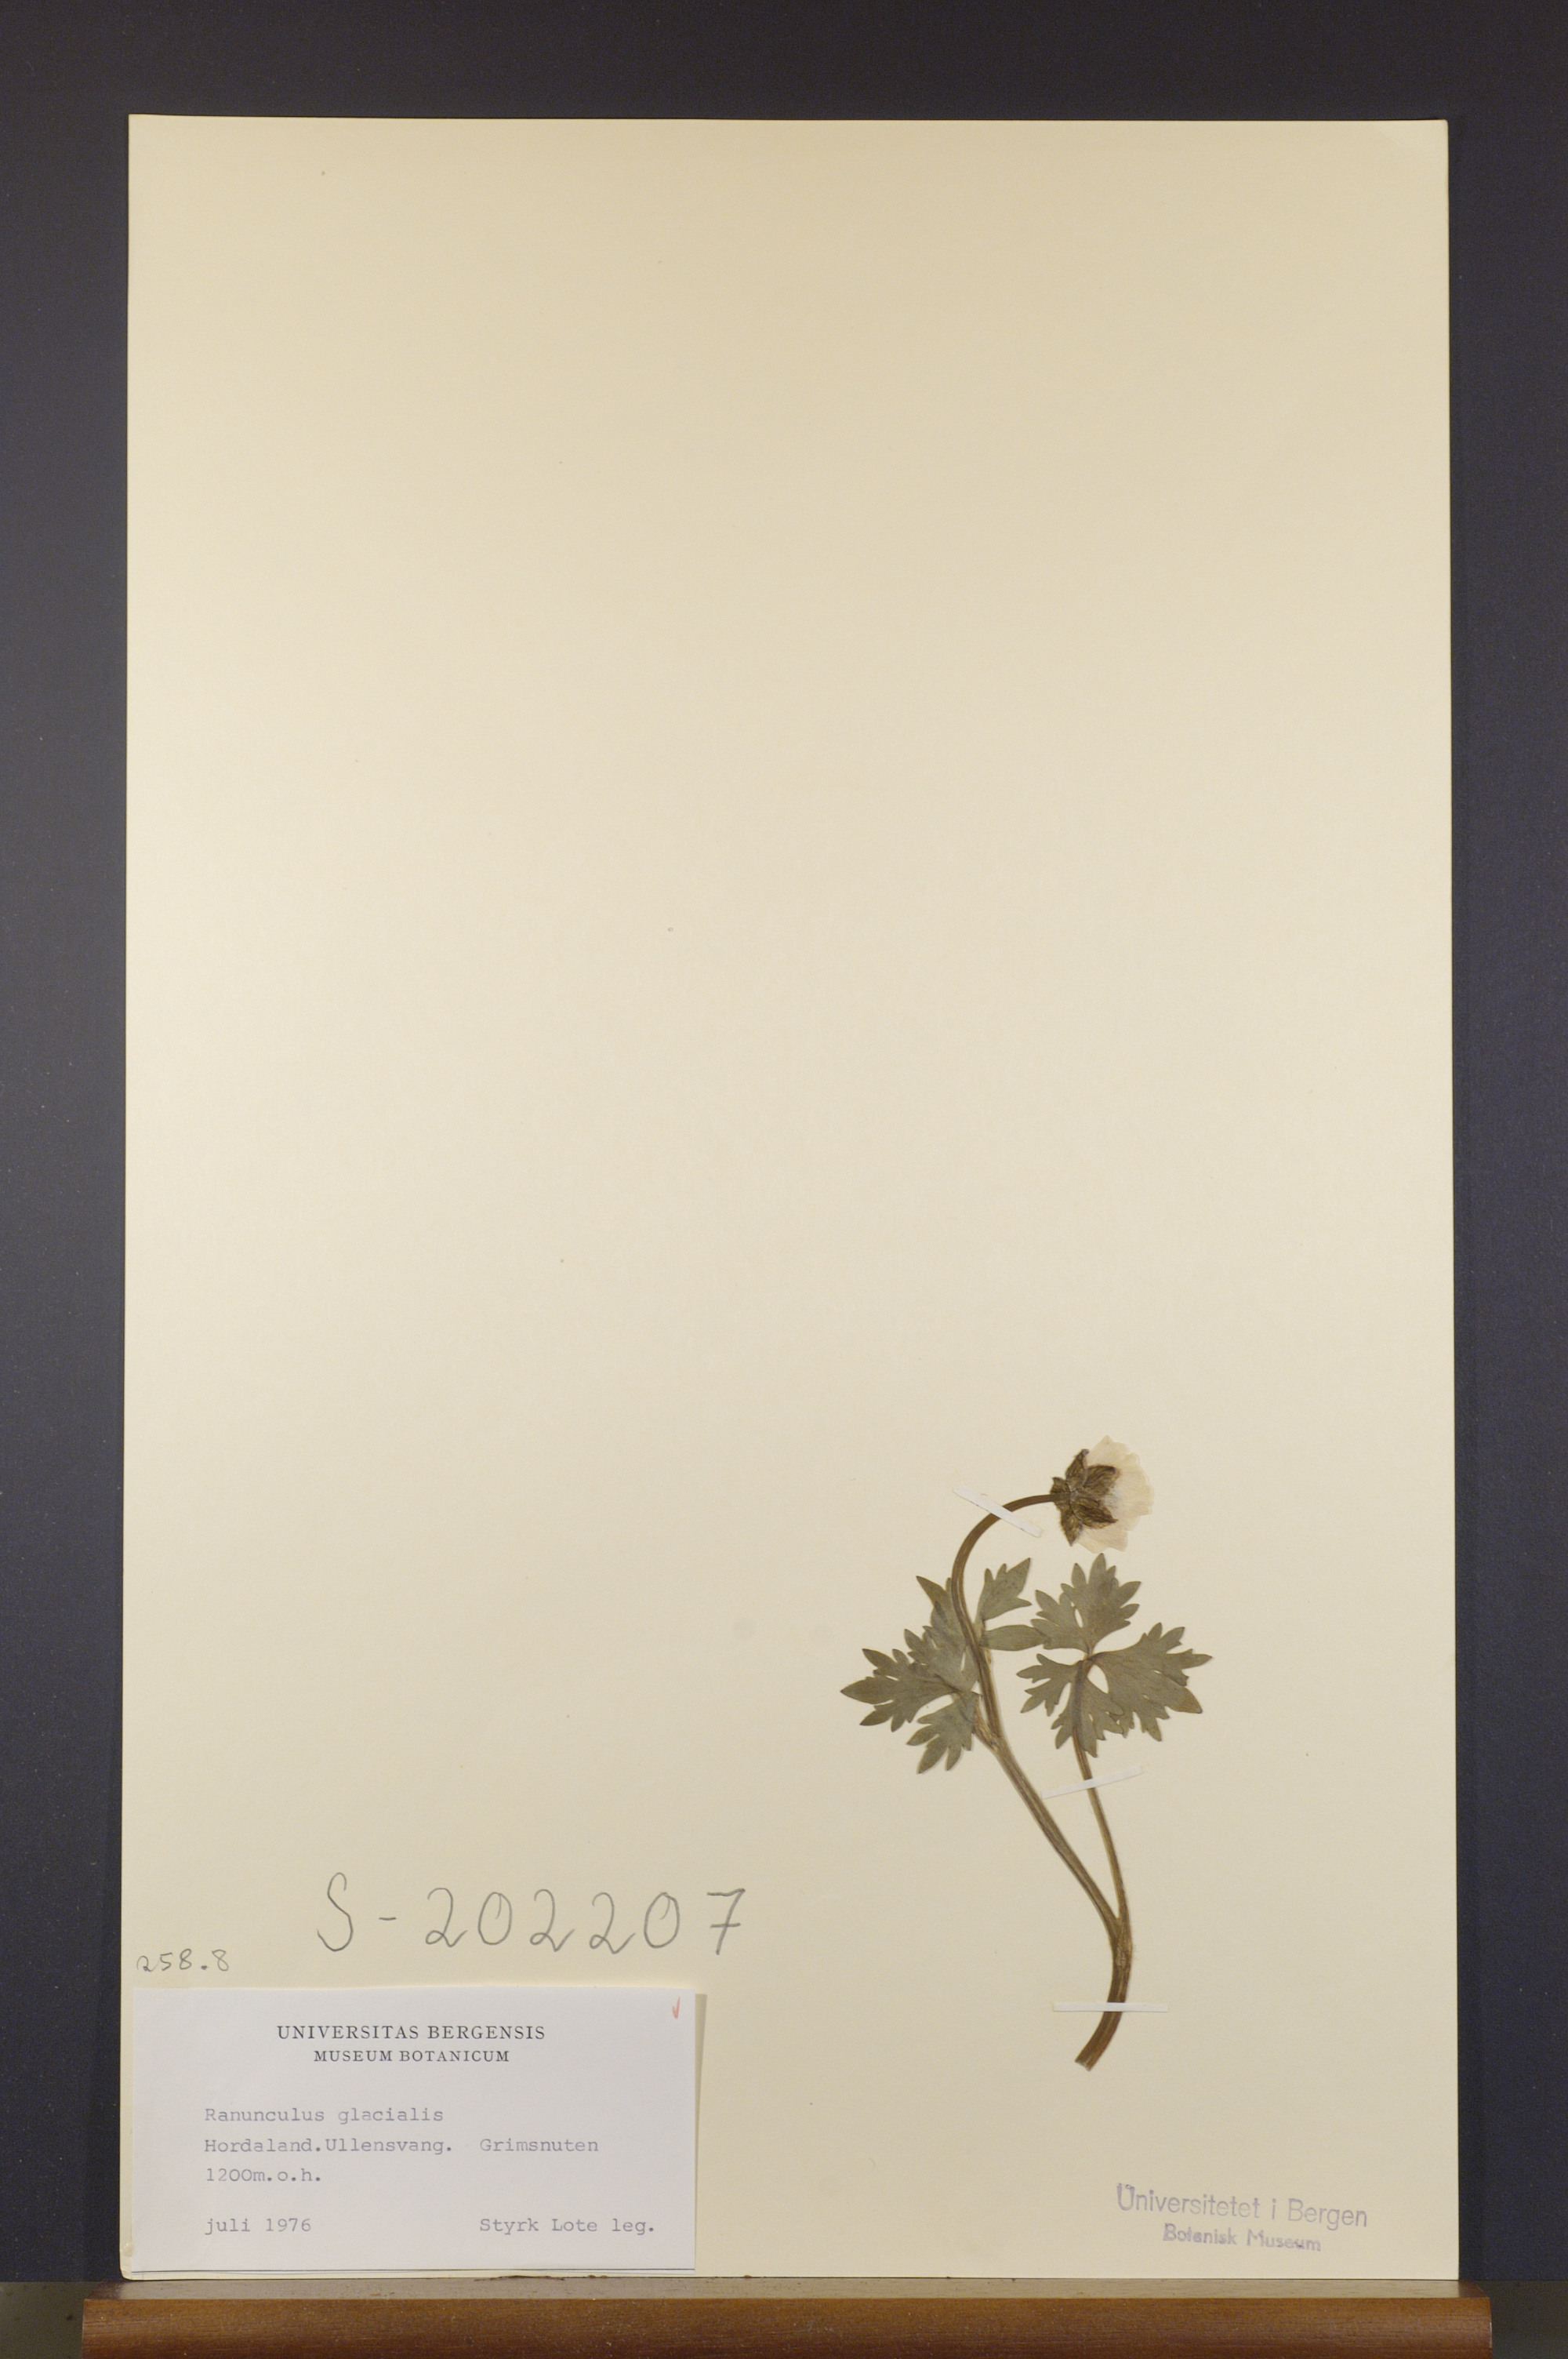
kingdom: Plantae
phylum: Tracheophyta
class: Magnoliopsida
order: Ranunculales
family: Ranunculaceae
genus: Ranunculus
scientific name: Ranunculus glacialis
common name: Glacier buttercup
